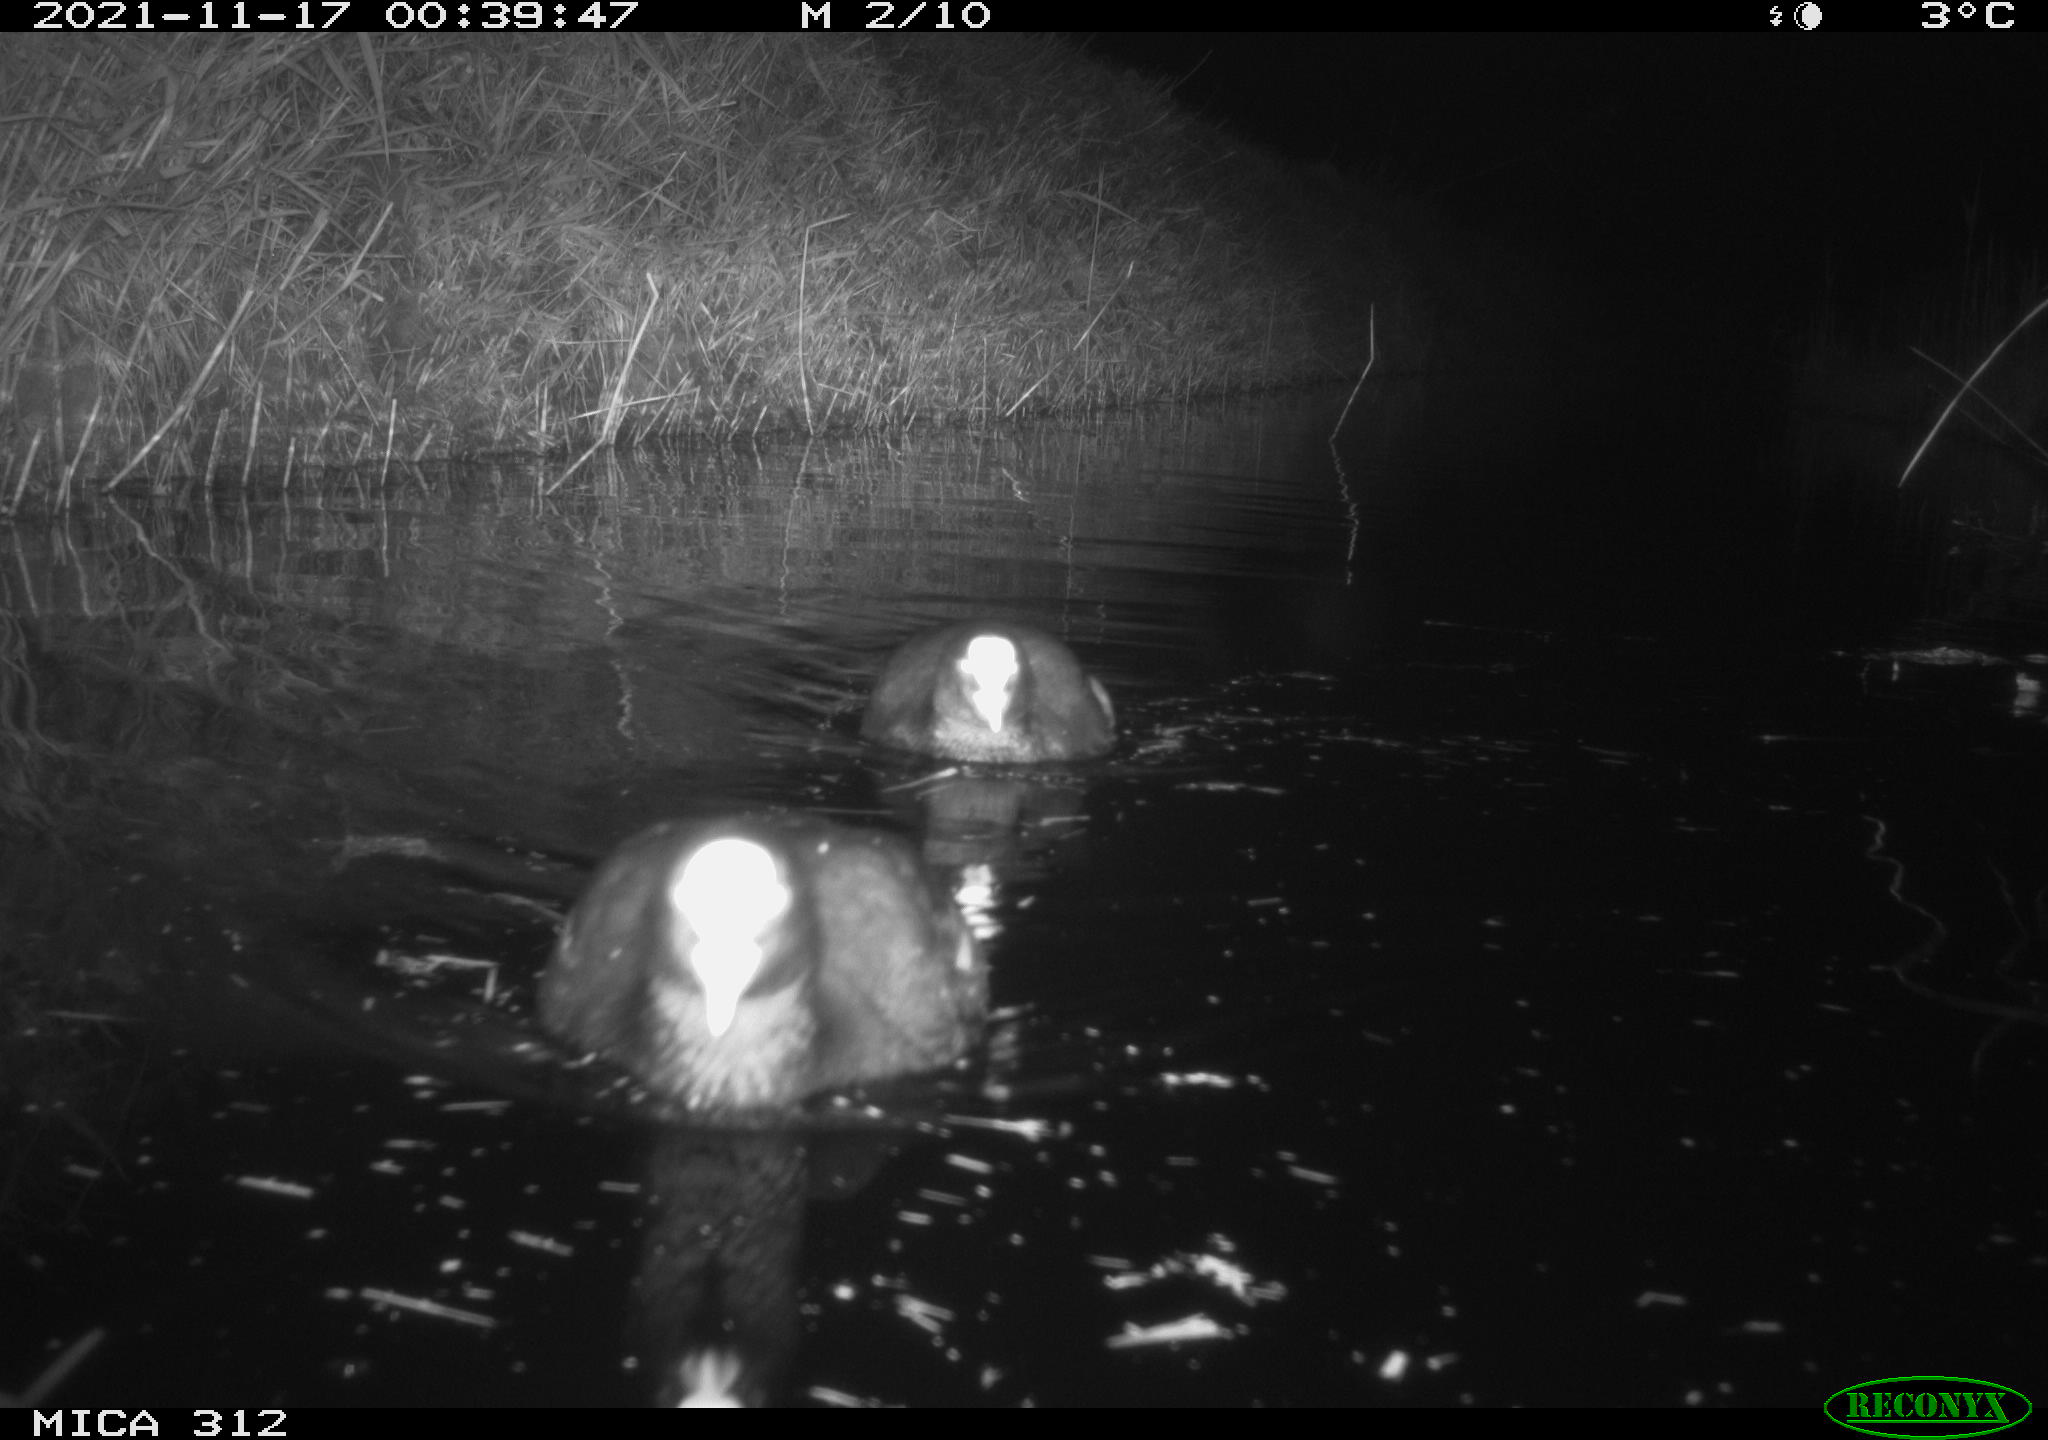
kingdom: Animalia
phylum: Chordata
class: Aves
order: Gruiformes
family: Rallidae
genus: Fulica
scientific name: Fulica atra
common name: Eurasian coot
